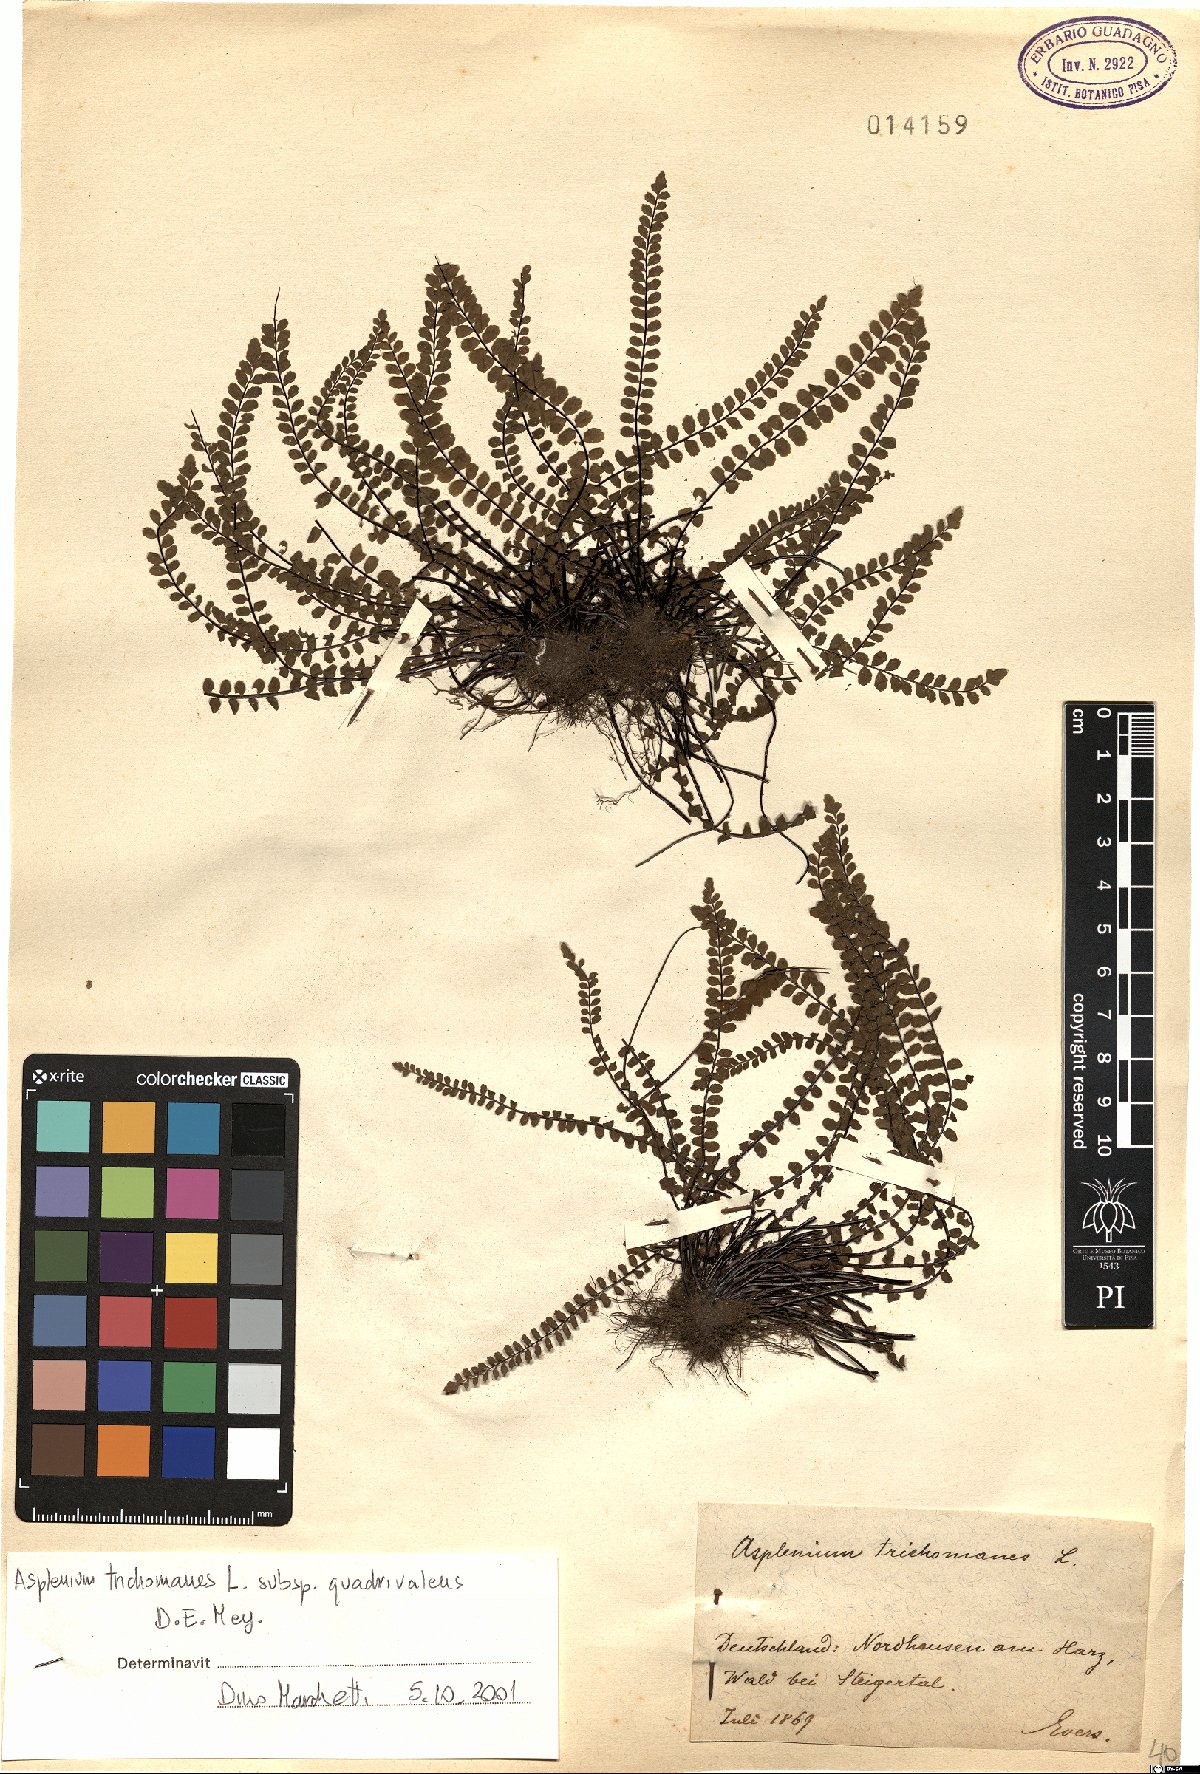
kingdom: Plantae
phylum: Tracheophyta
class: Polypodiopsida
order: Polypodiales
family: Aspleniaceae
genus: Asplenium
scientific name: Asplenium quadrivalens
